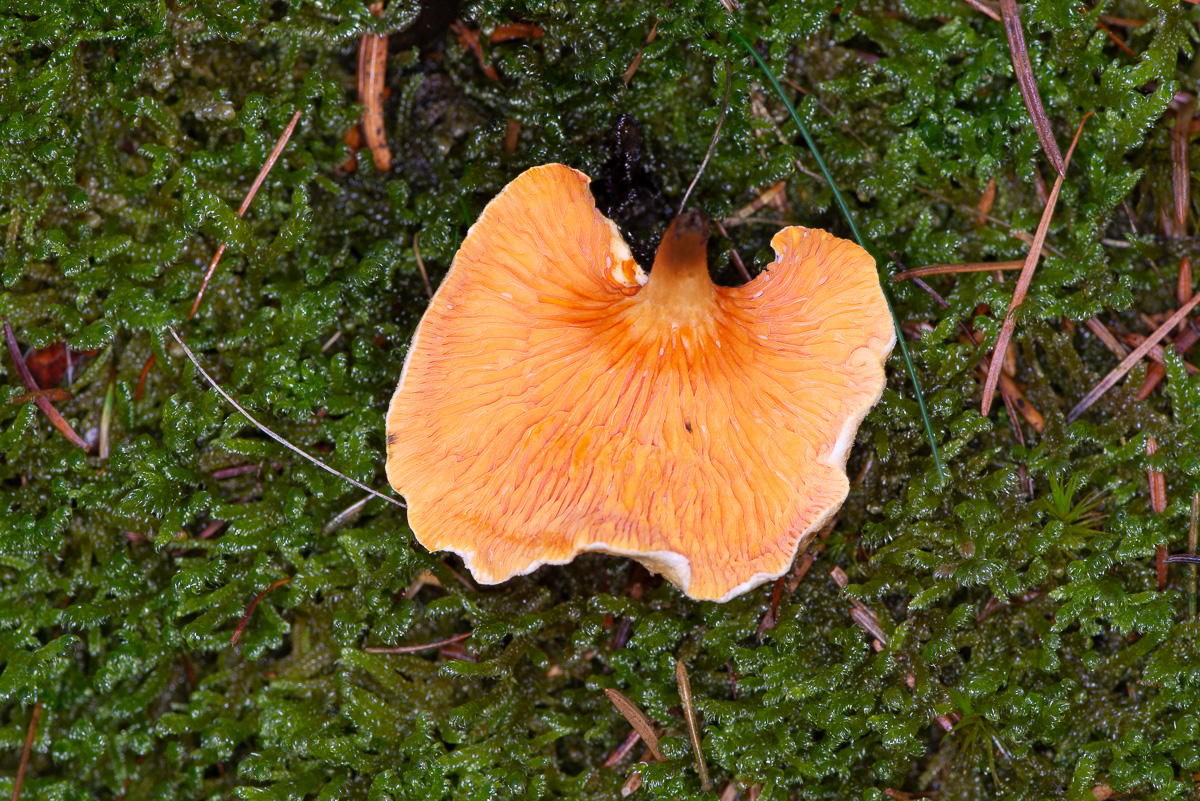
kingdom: Fungi
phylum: Basidiomycota
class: Agaricomycetes
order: Boletales
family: Hygrophoropsidaceae
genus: Hygrophoropsis
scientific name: Hygrophoropsis aurantiaca
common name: almindelig orangekantarel
